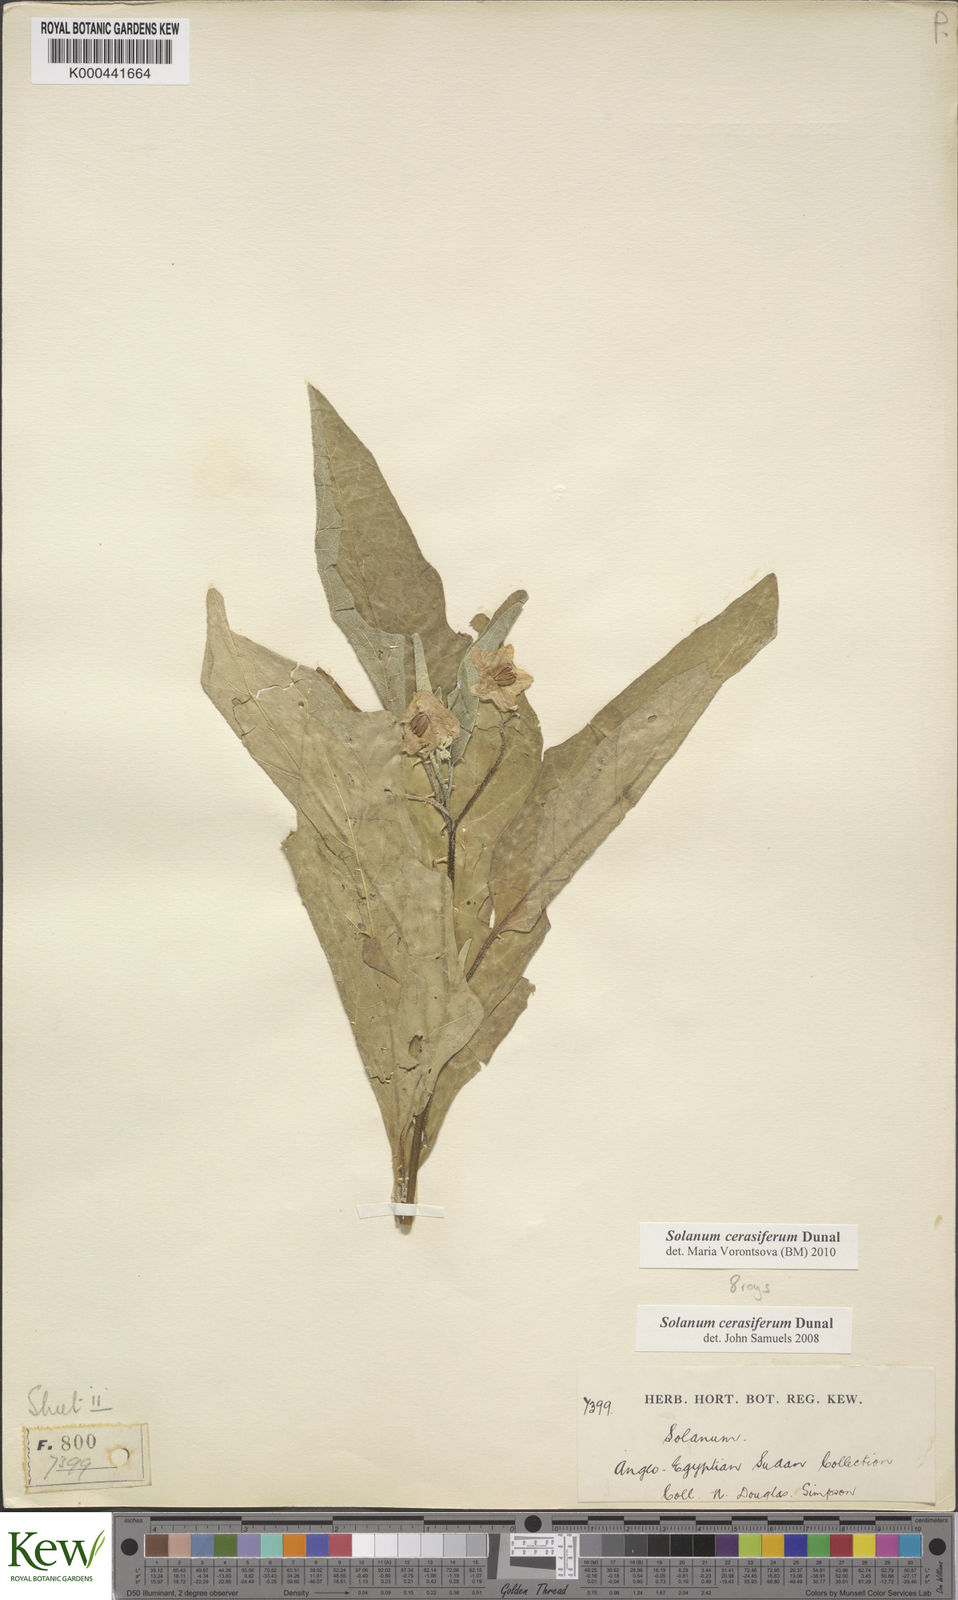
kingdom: Plantae
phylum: Tracheophyta
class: Magnoliopsida
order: Solanales
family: Solanaceae
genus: Solanum
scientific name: Solanum cerasiferum
